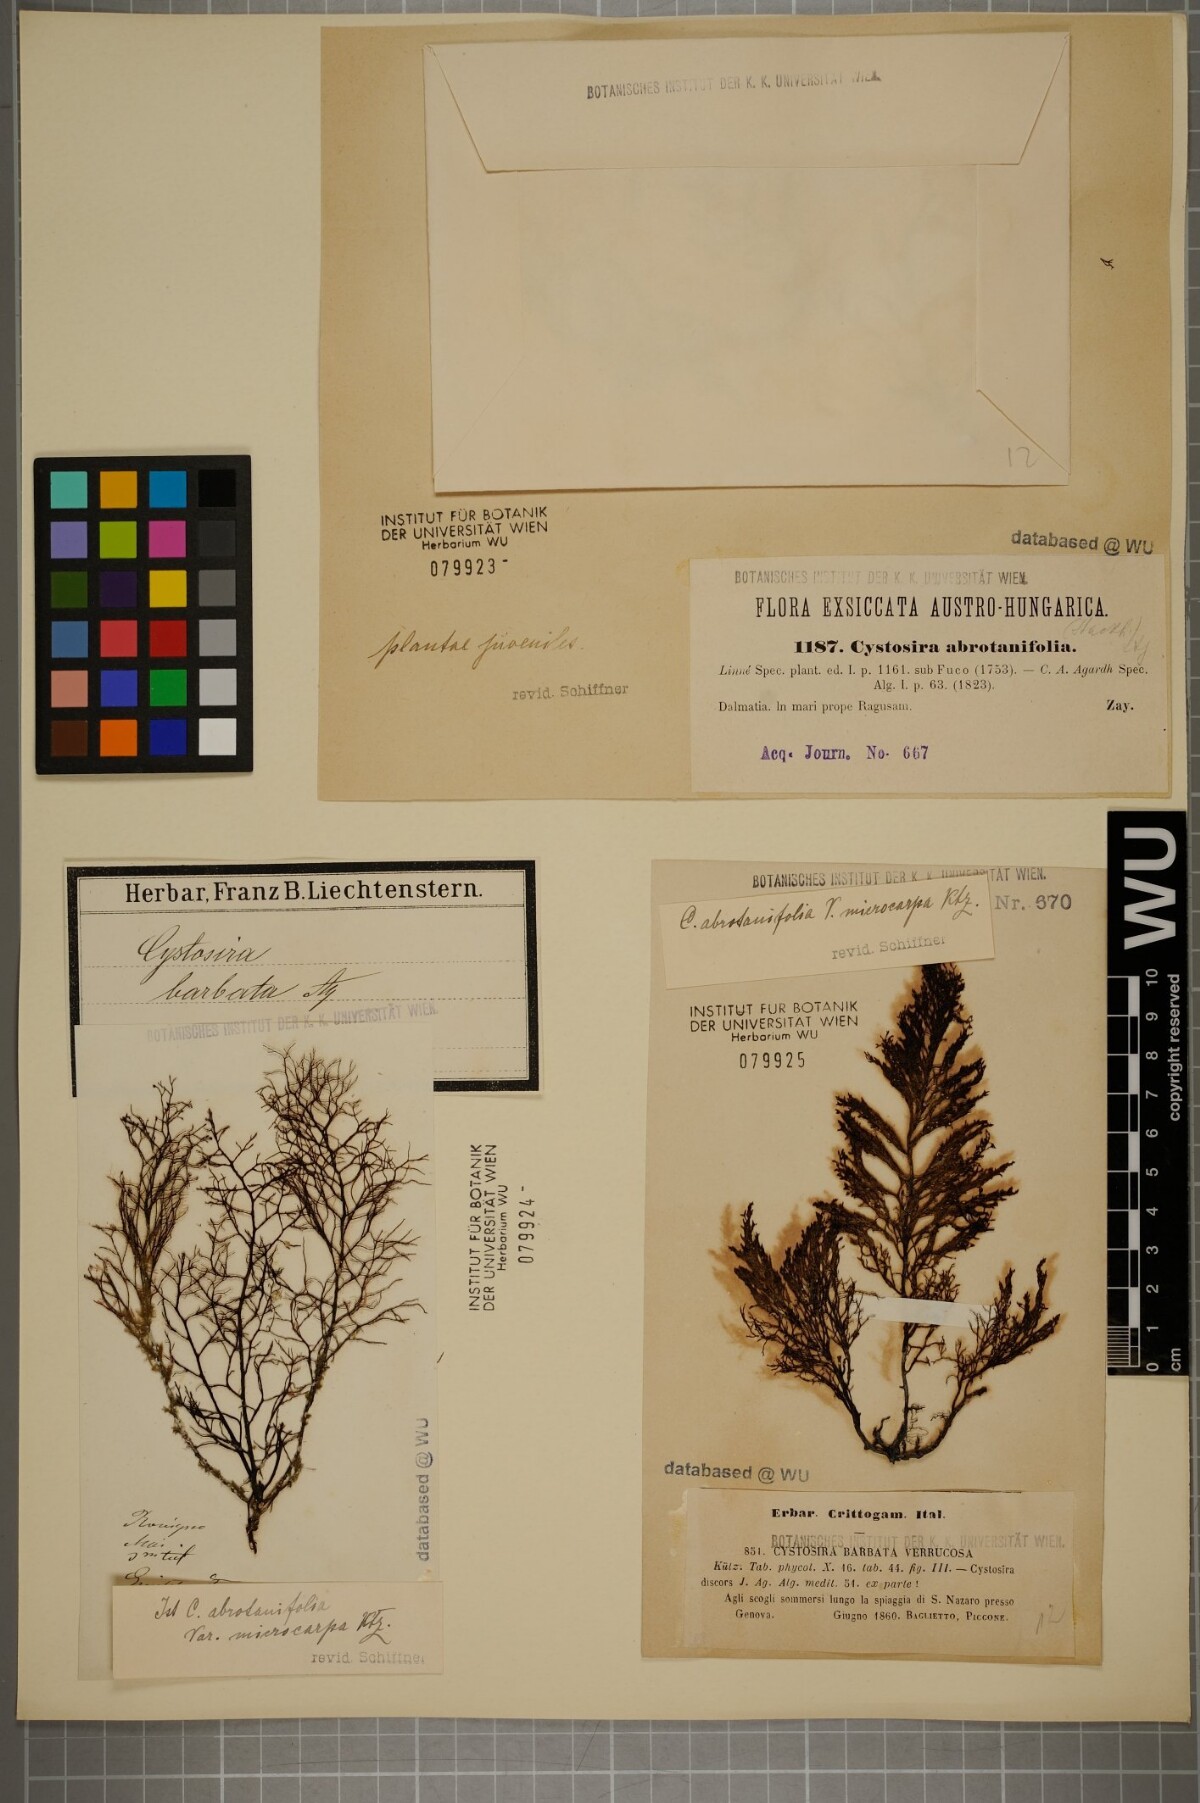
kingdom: Chromista
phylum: Ochrophyta
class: Phaeophyceae
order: Fucales
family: Sargassaceae
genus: Cystoseira
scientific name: Cystoseira foeniculacea
